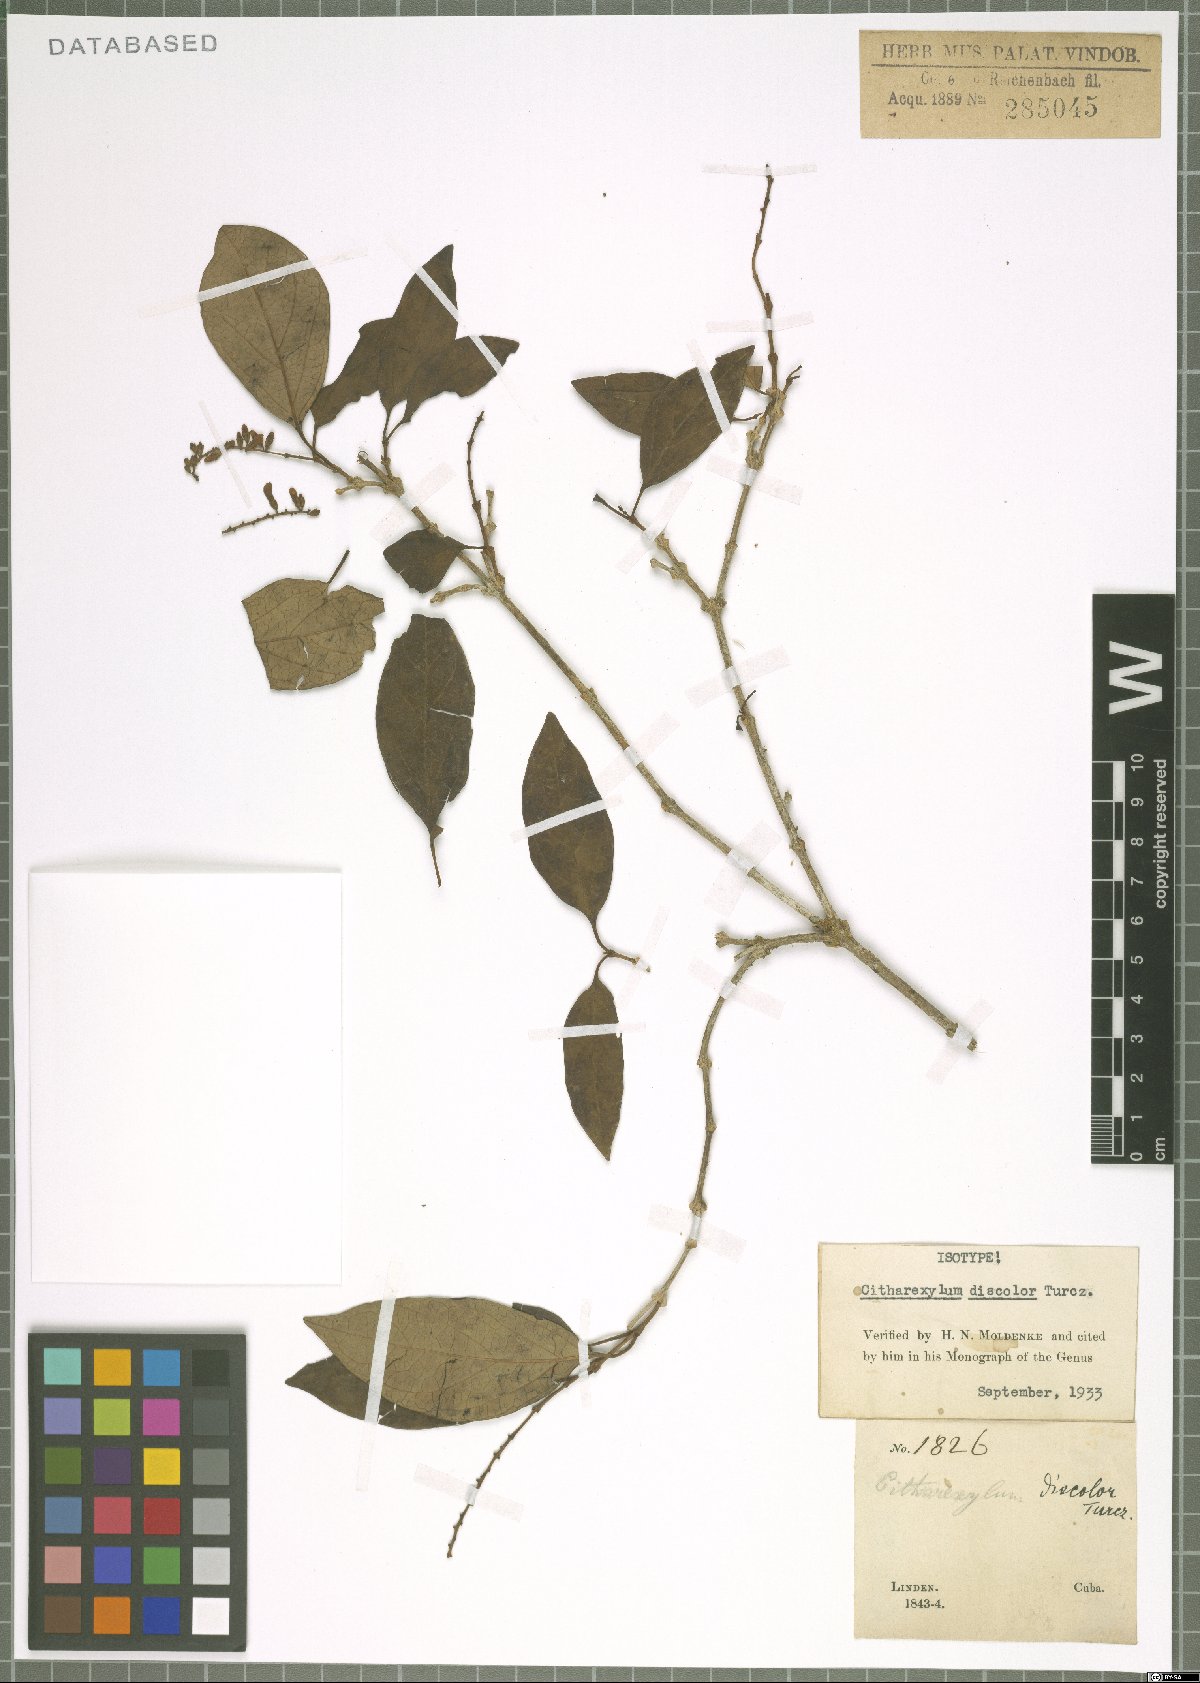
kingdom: Plantae
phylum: Tracheophyta
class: Magnoliopsida
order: Lamiales
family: Verbenaceae
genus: Citharexylum
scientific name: Citharexylum discolor
